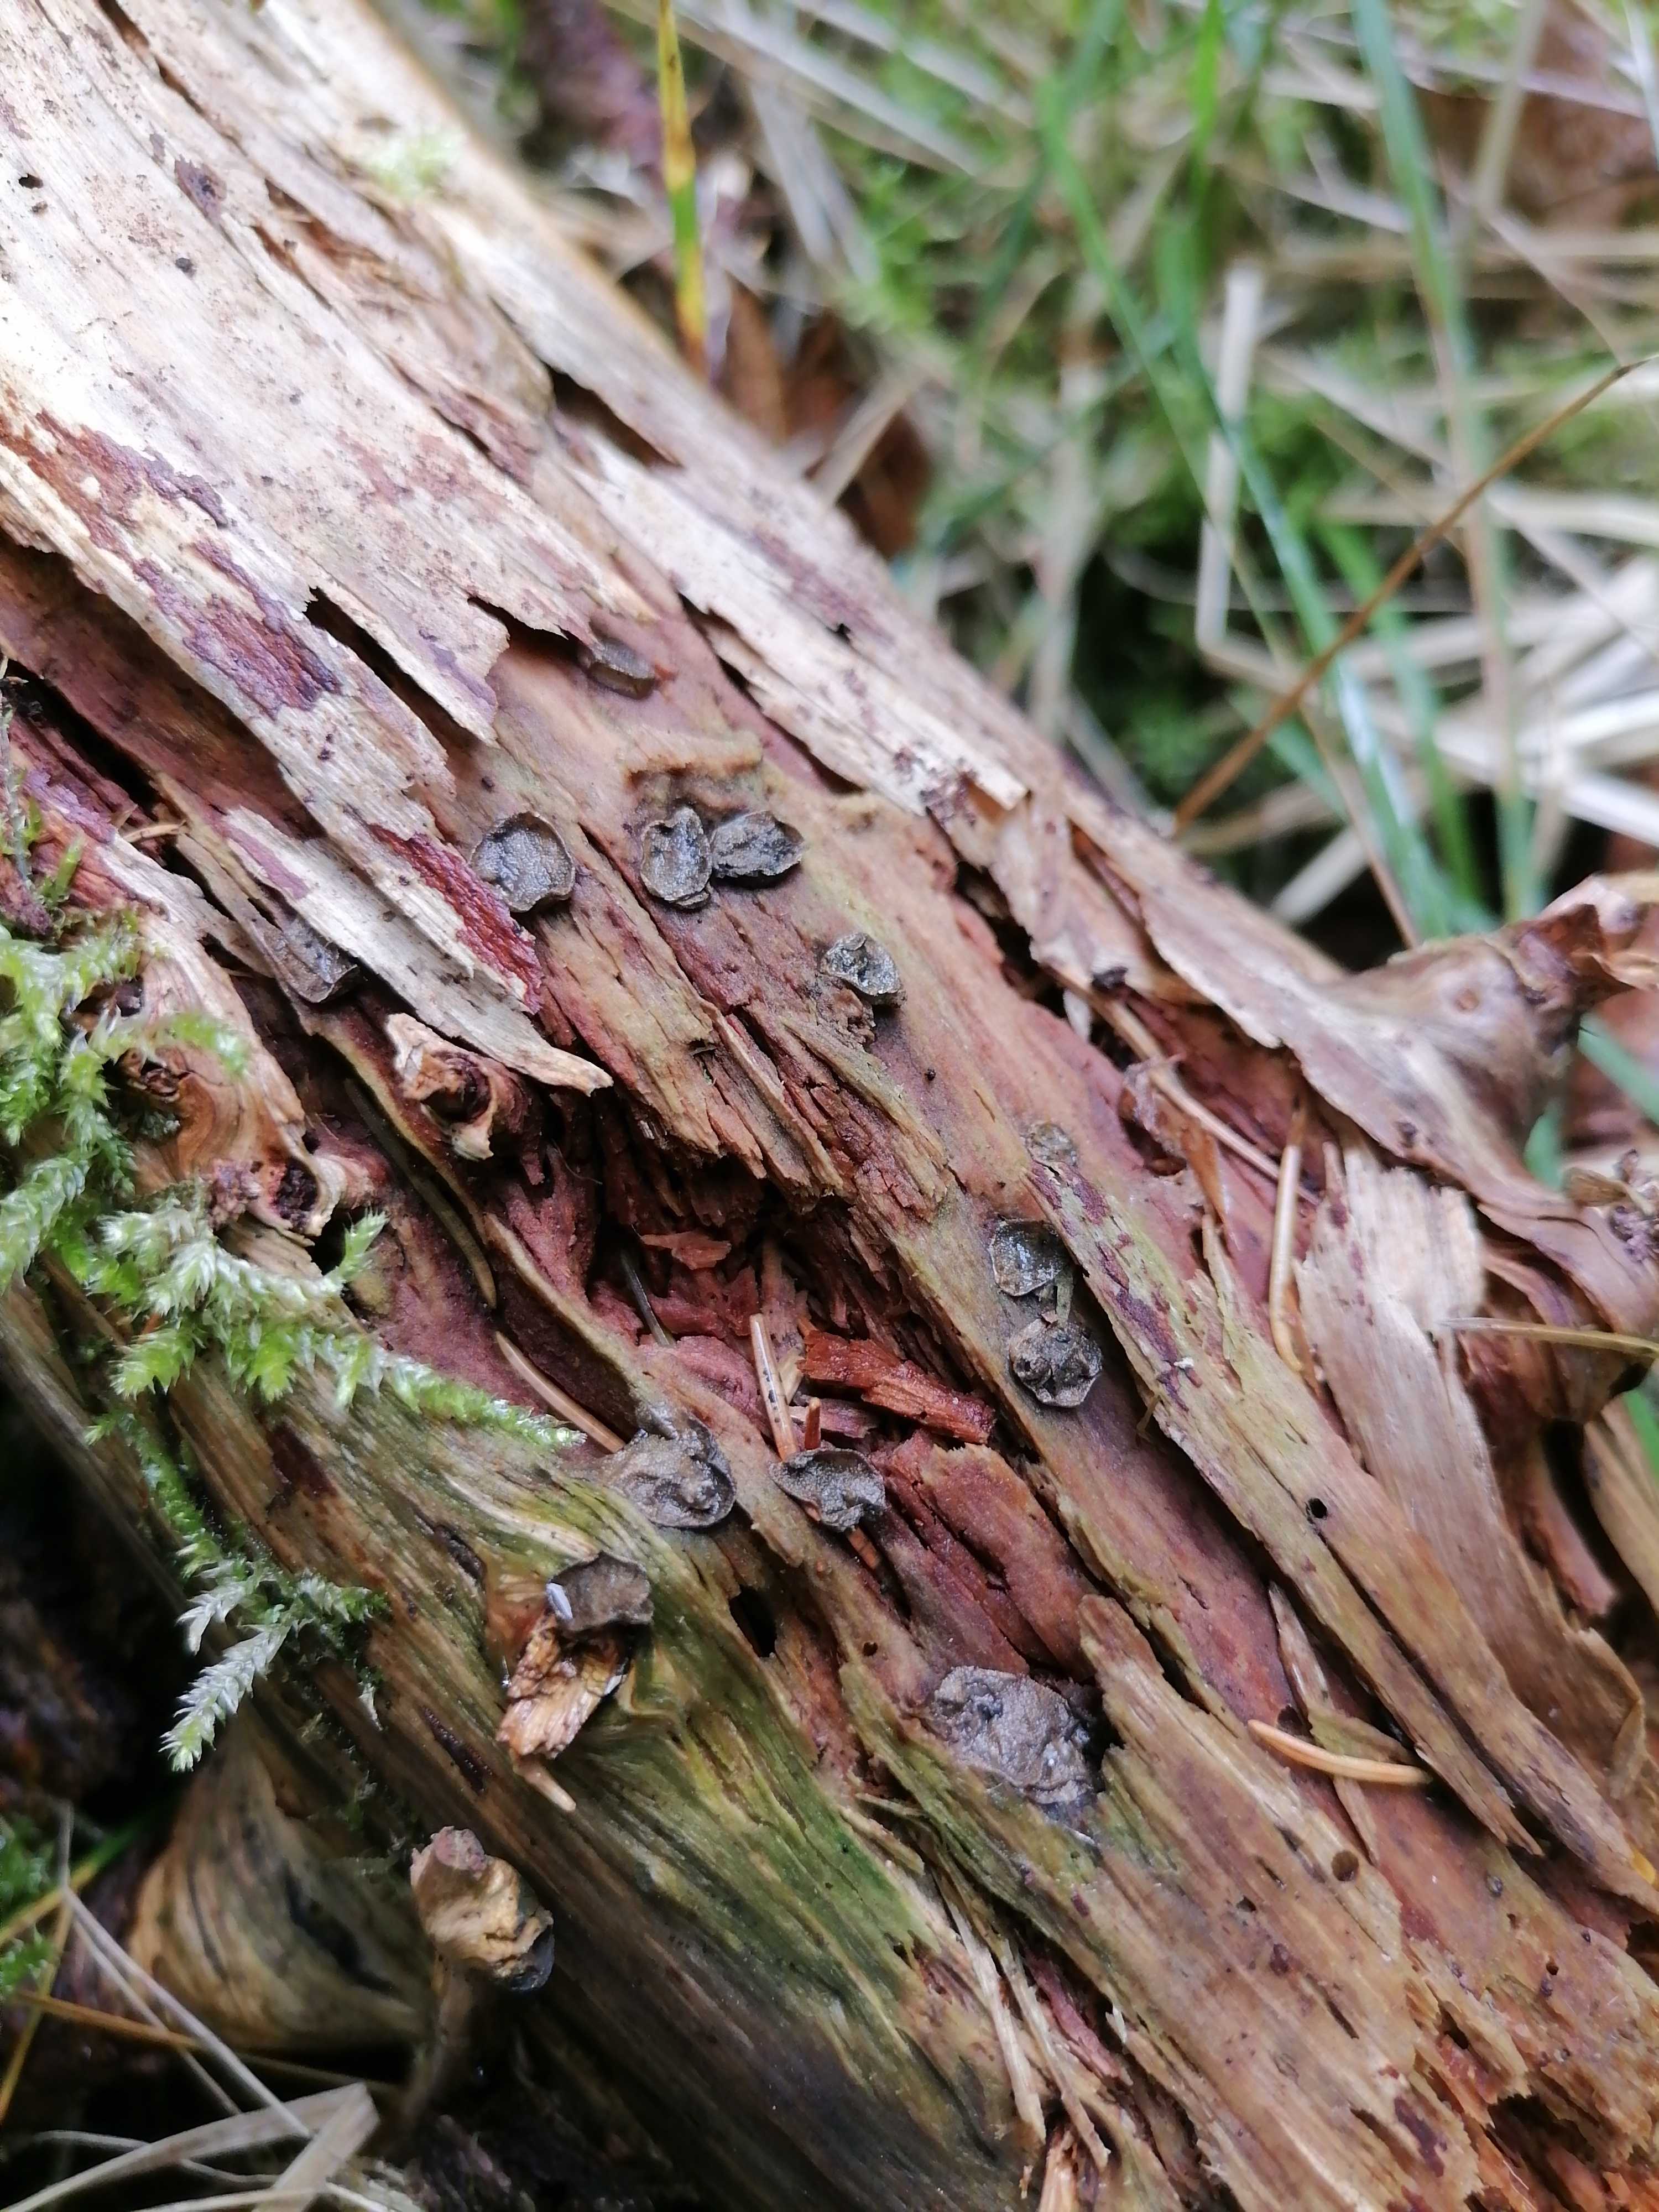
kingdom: Protozoa
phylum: Mycetozoa
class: Myxomycetes
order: Cribrariales
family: Tubiferaceae
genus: Lycogala
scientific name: Lycogala epidendrum
